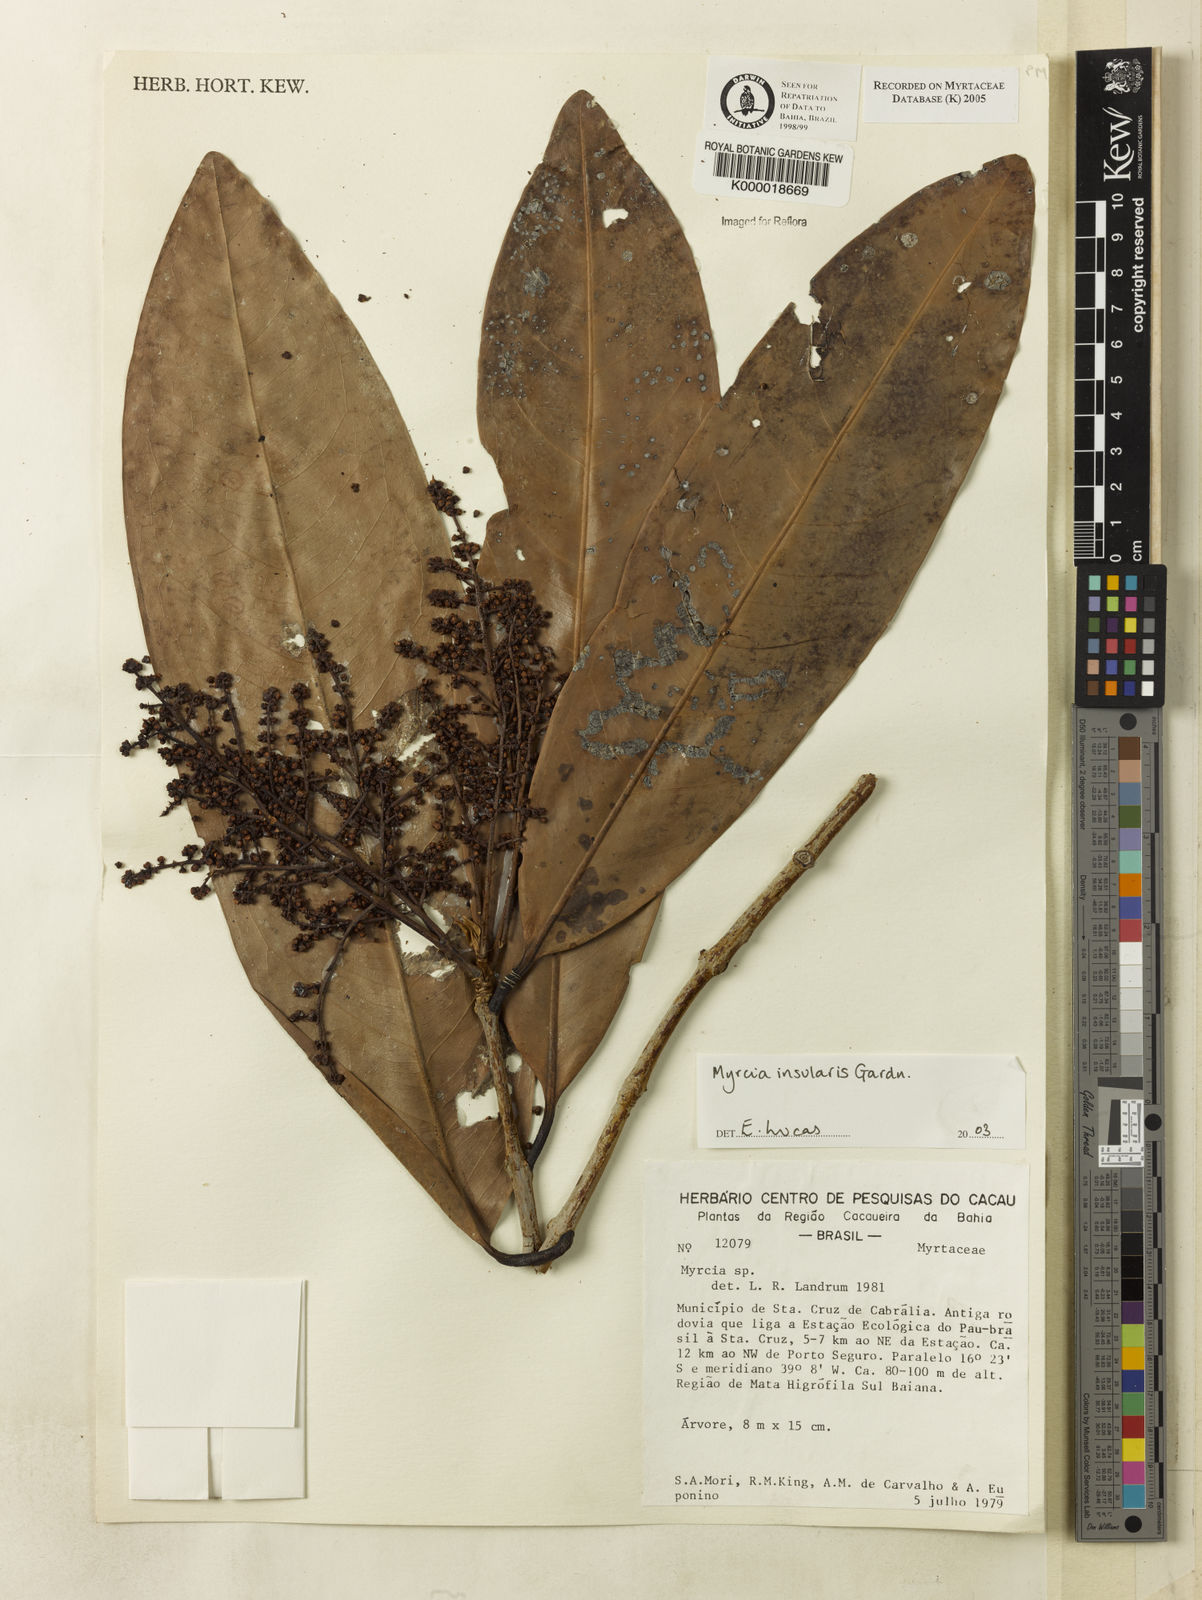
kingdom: Plantae
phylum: Tracheophyta
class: Magnoliopsida
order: Myrtales
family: Myrtaceae
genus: Myrcia
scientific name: Myrcia insularis
